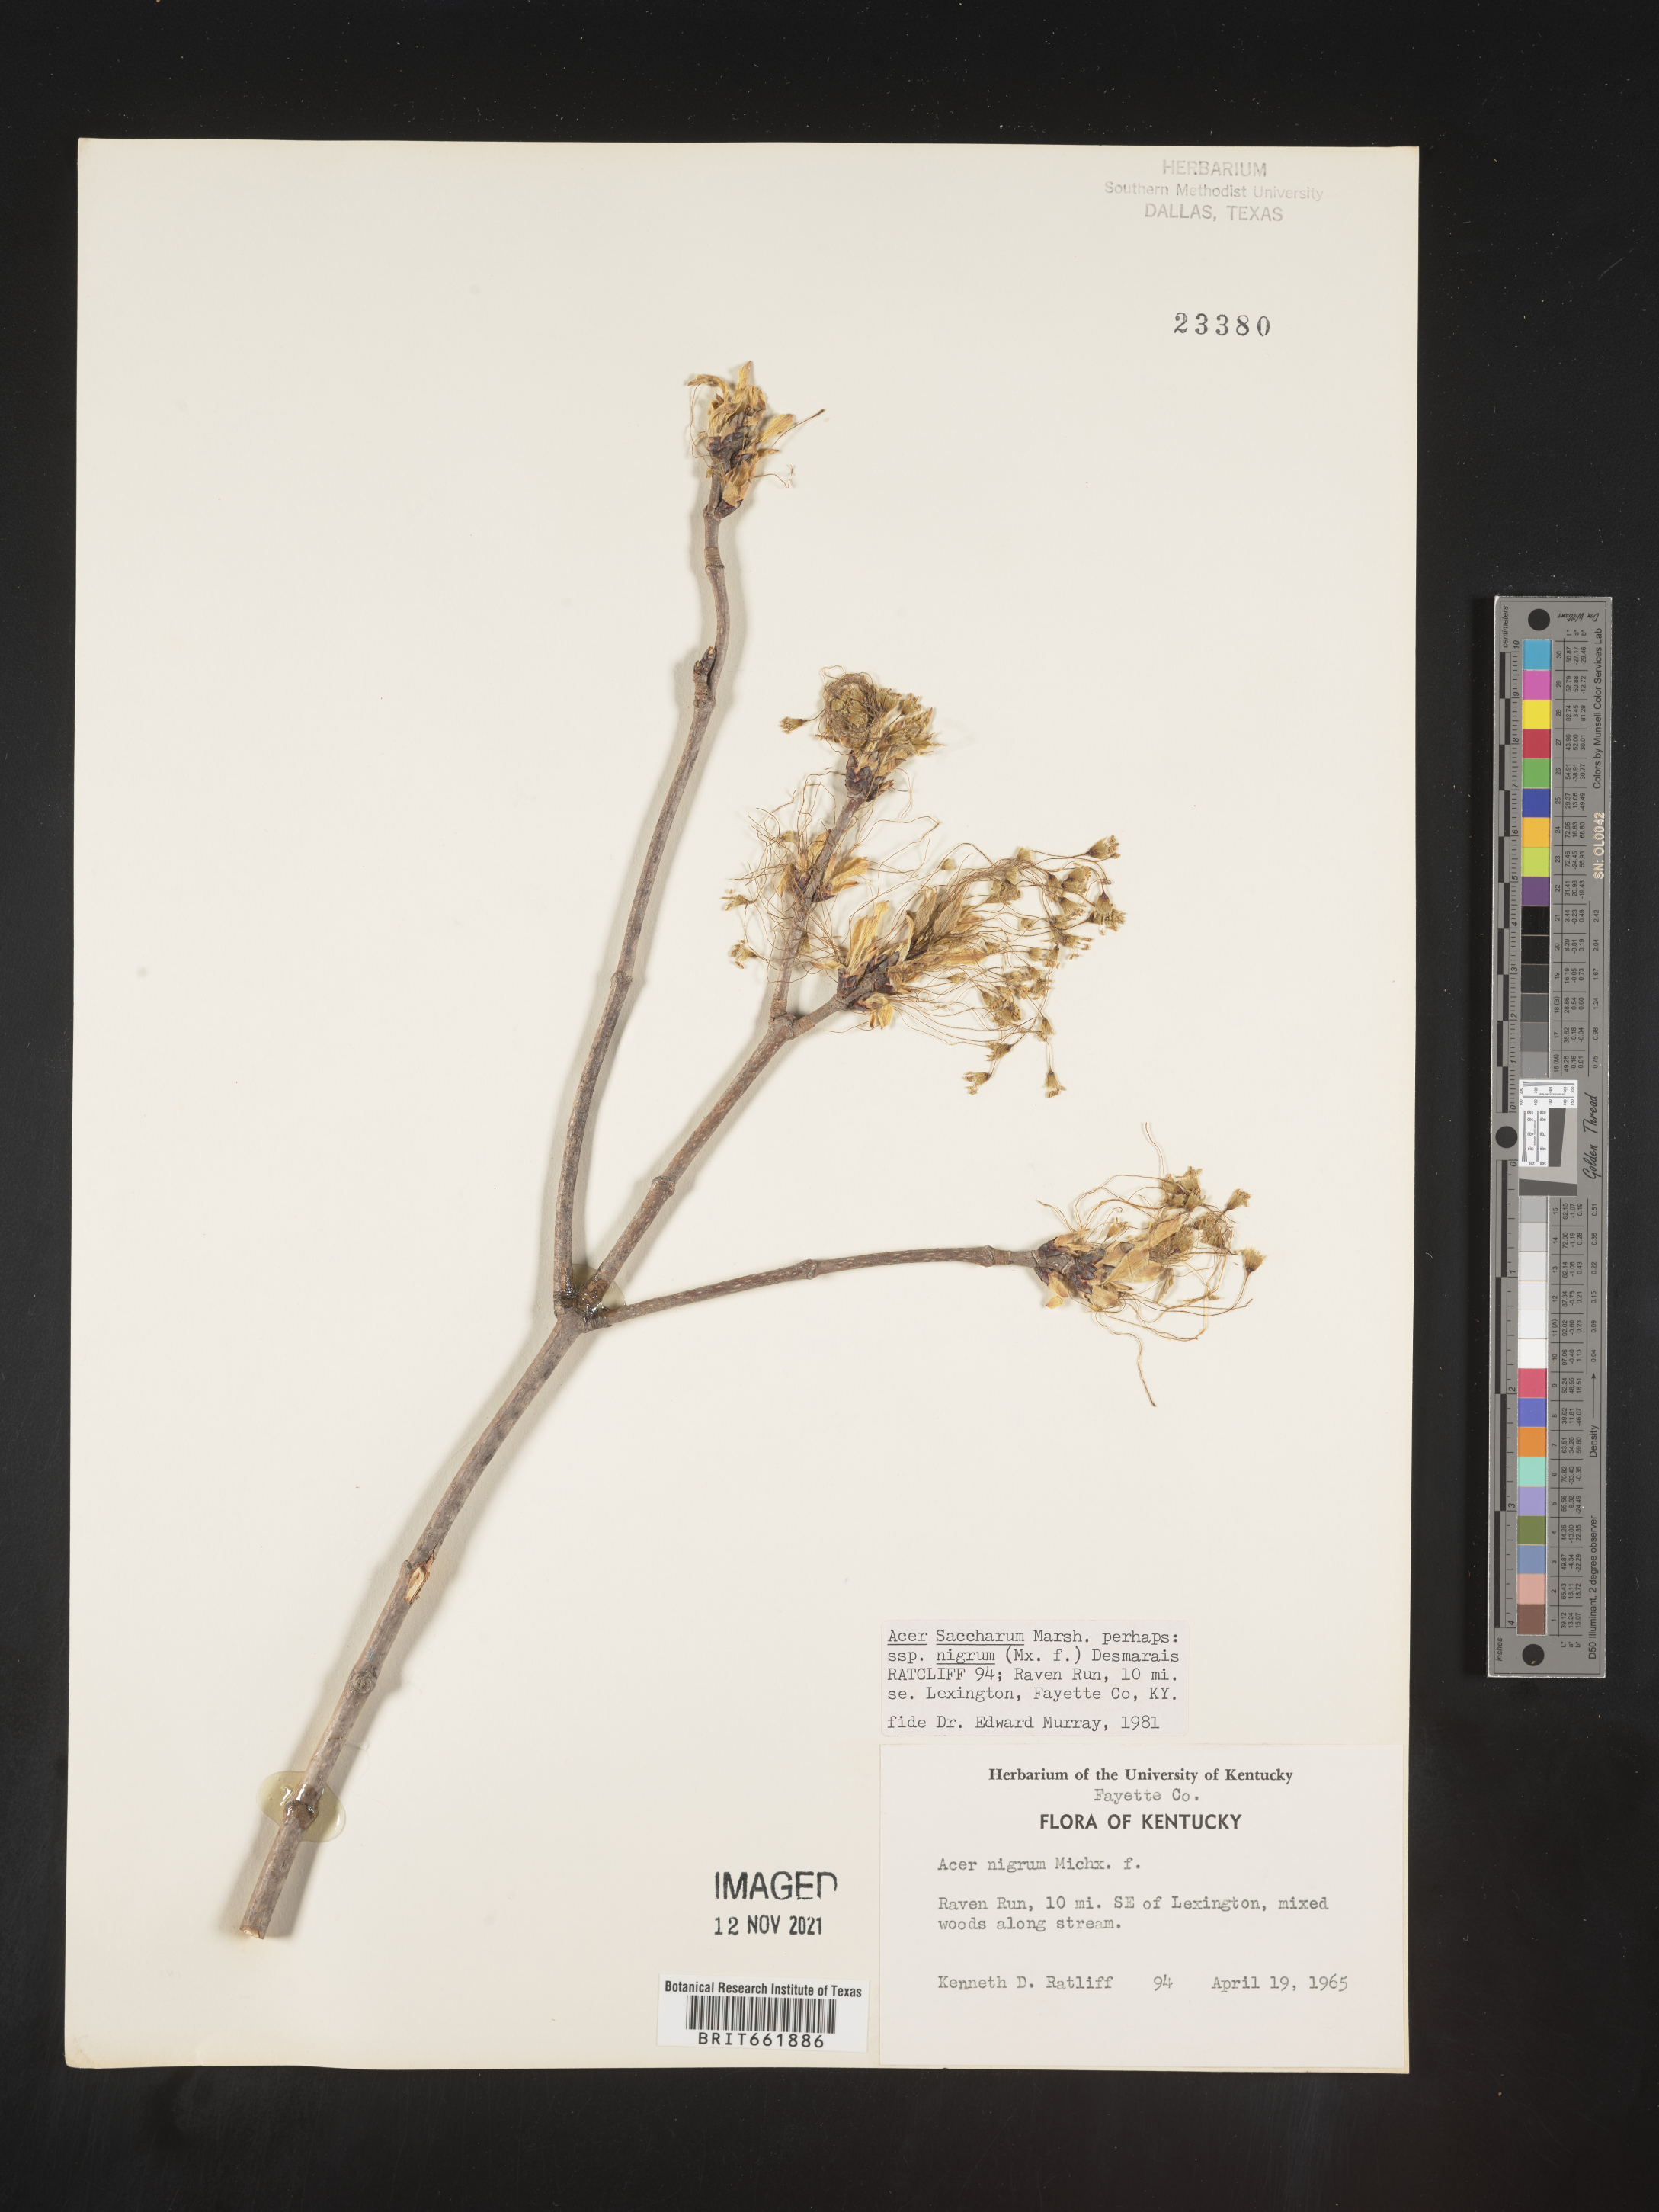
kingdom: Plantae
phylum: Tracheophyta
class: Magnoliopsida
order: Sapindales
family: Sapindaceae
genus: Acer
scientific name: Acer nigrum
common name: Black maple
